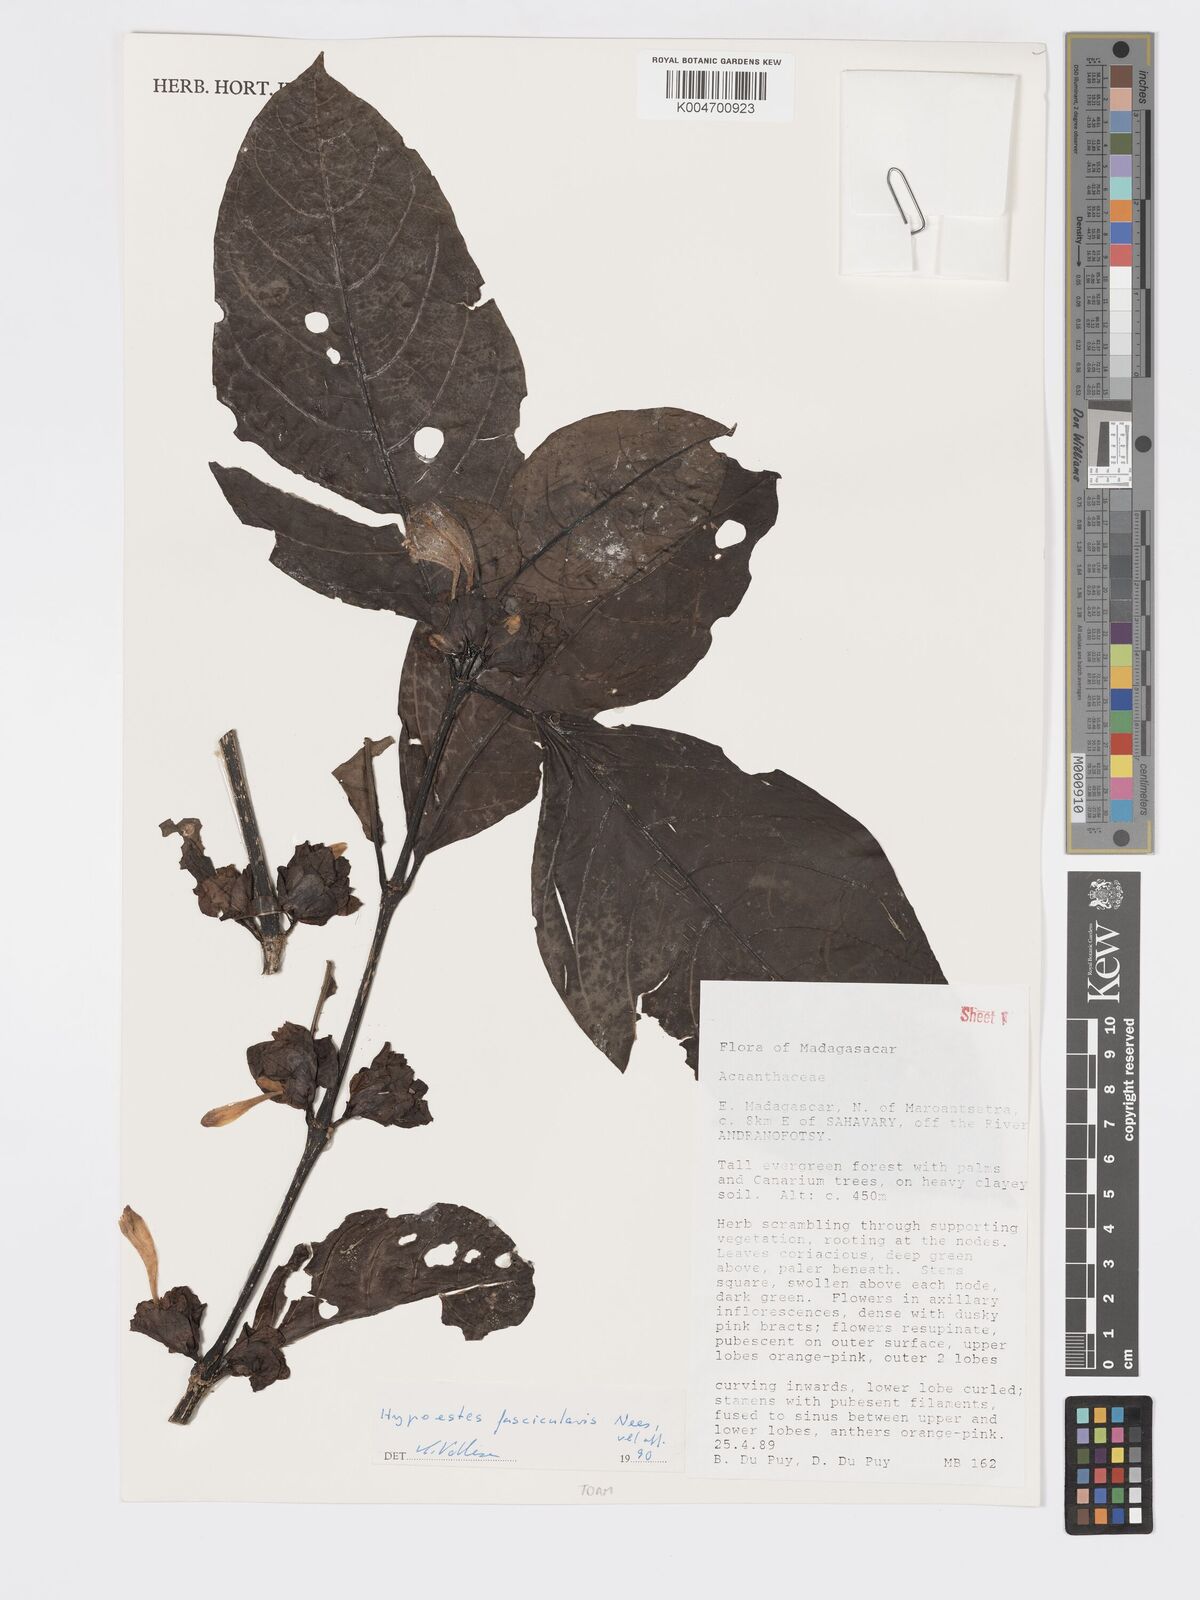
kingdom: Plantae
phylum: Tracheophyta
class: Magnoliopsida
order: Lamiales
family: Acanthaceae
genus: Hypoestes
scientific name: Hypoestes
